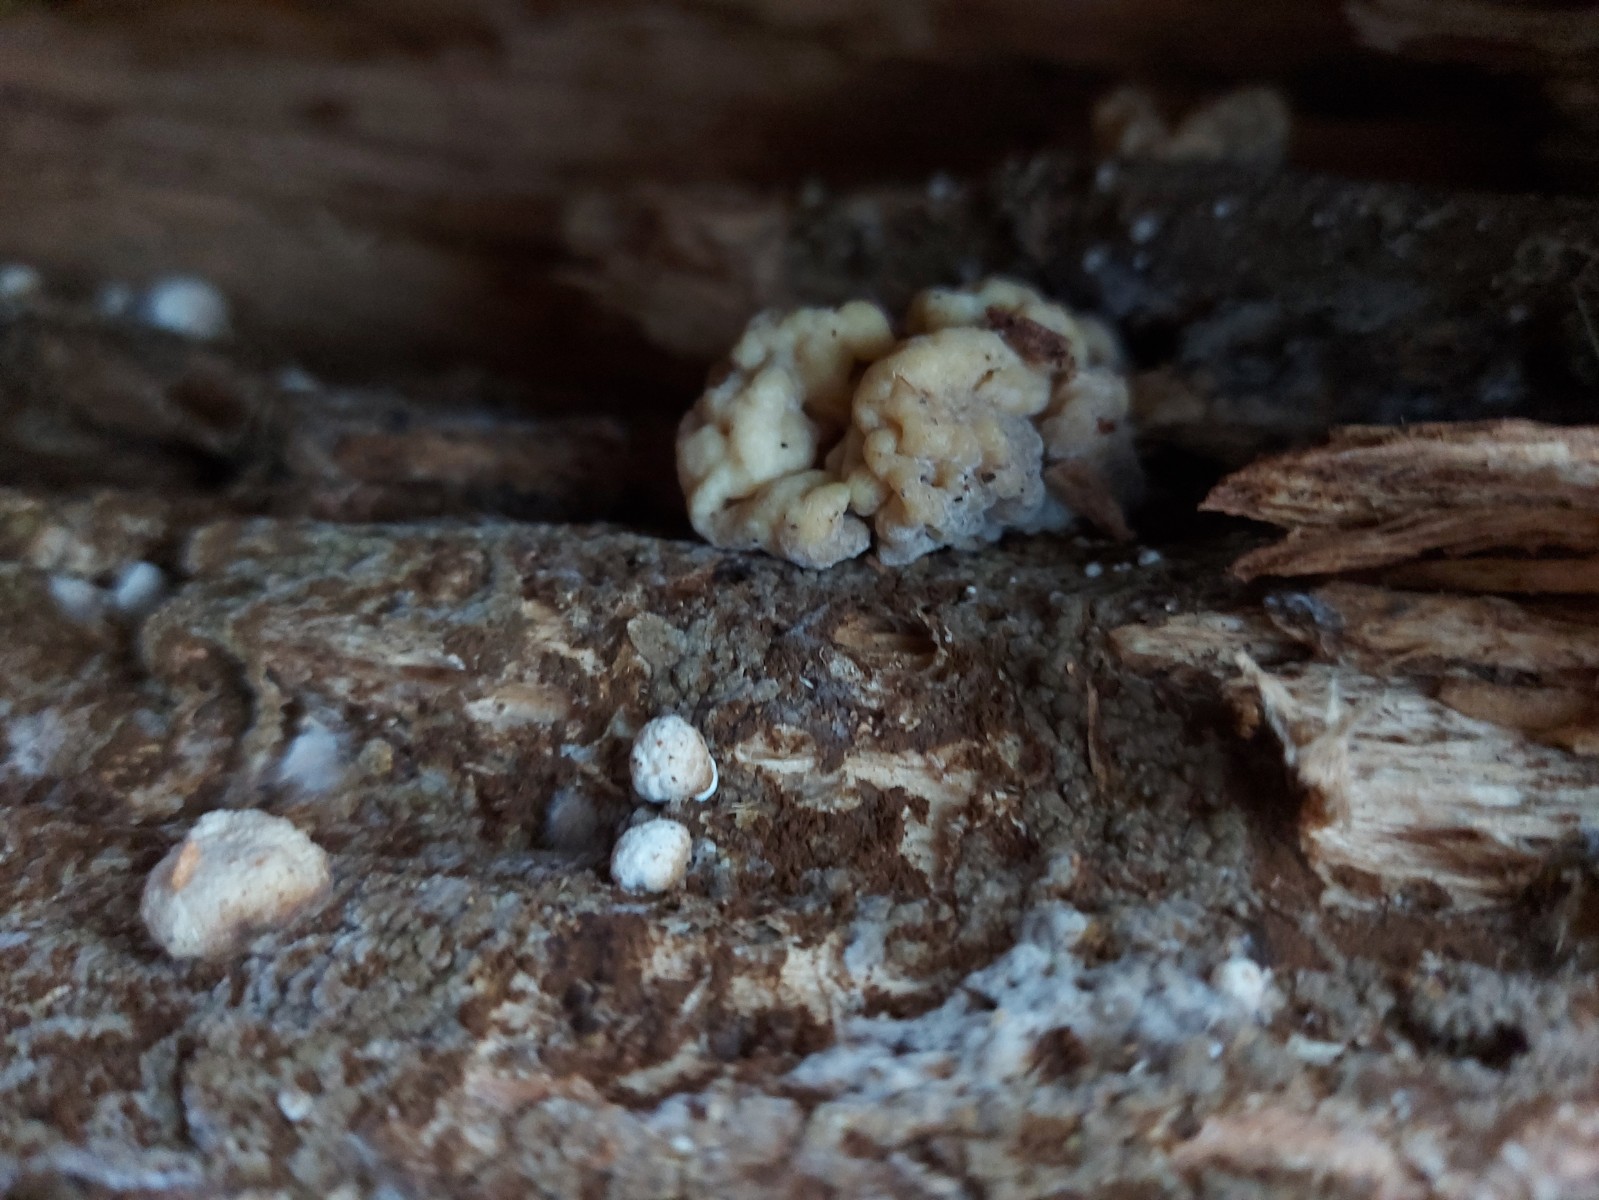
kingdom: Fungi
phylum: Ascomycota
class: Sordariomycetes
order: Xylariales
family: Hypoxylaceae
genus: Nodulisporium
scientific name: Nodulisporium cecidiogenes
